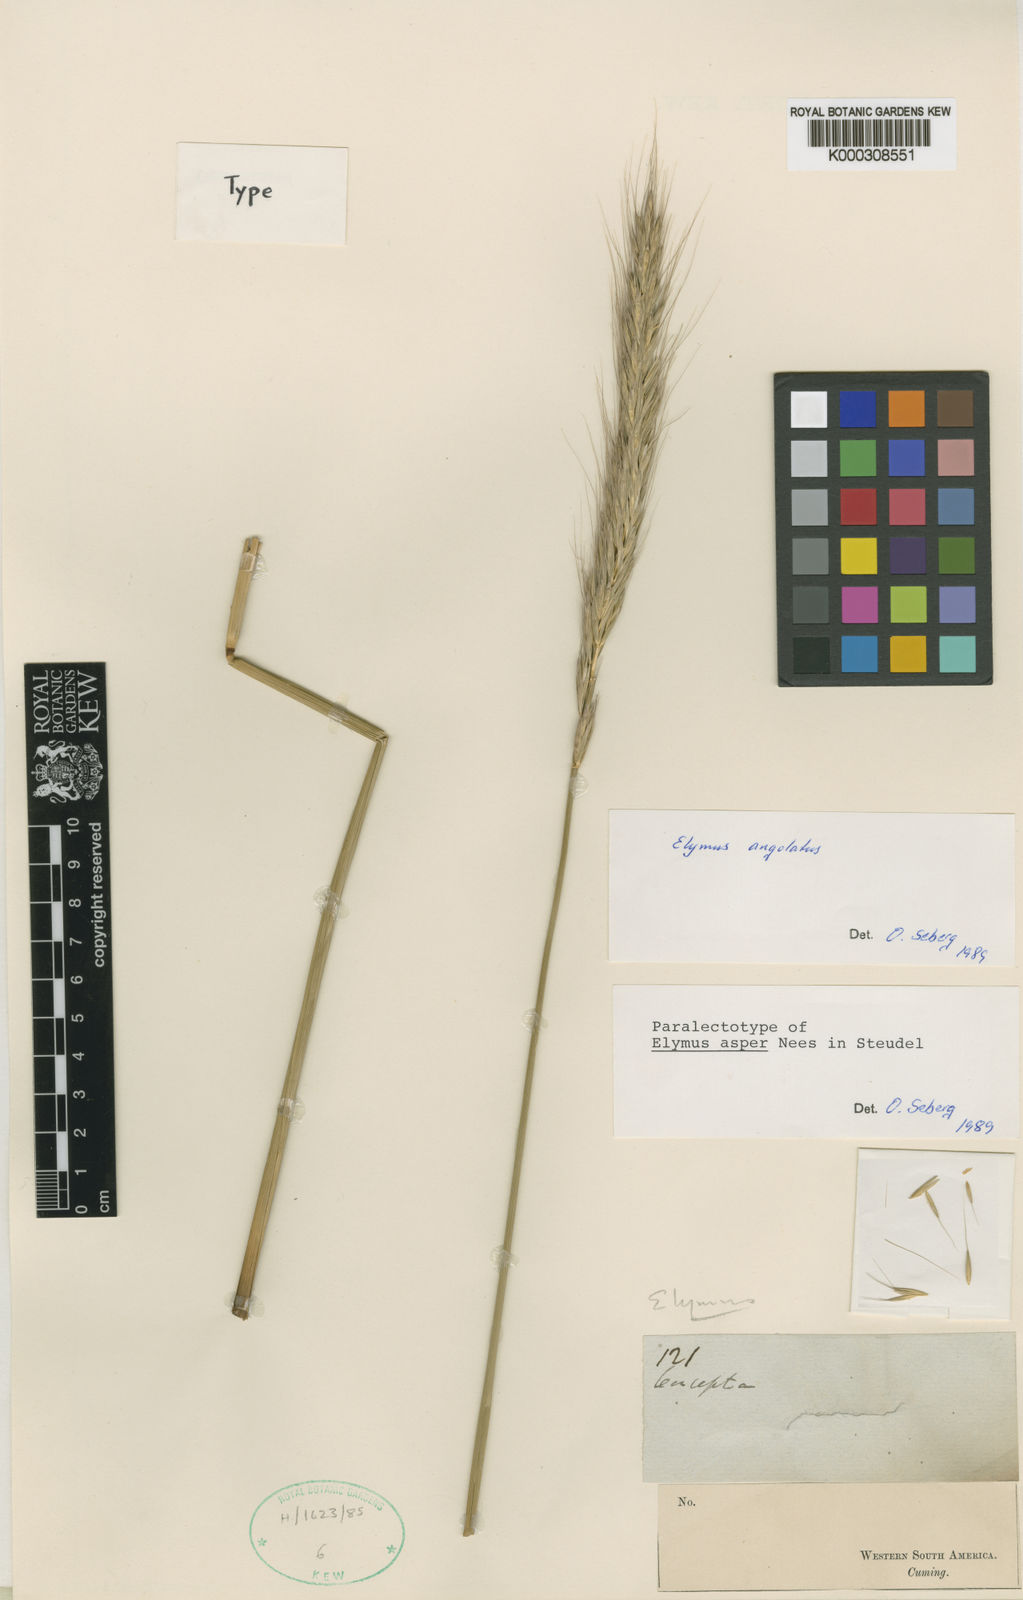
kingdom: Plantae
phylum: Tracheophyta
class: Liliopsida
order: Poales
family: Poaceae
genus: Elymus
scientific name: Elymus angulatus
